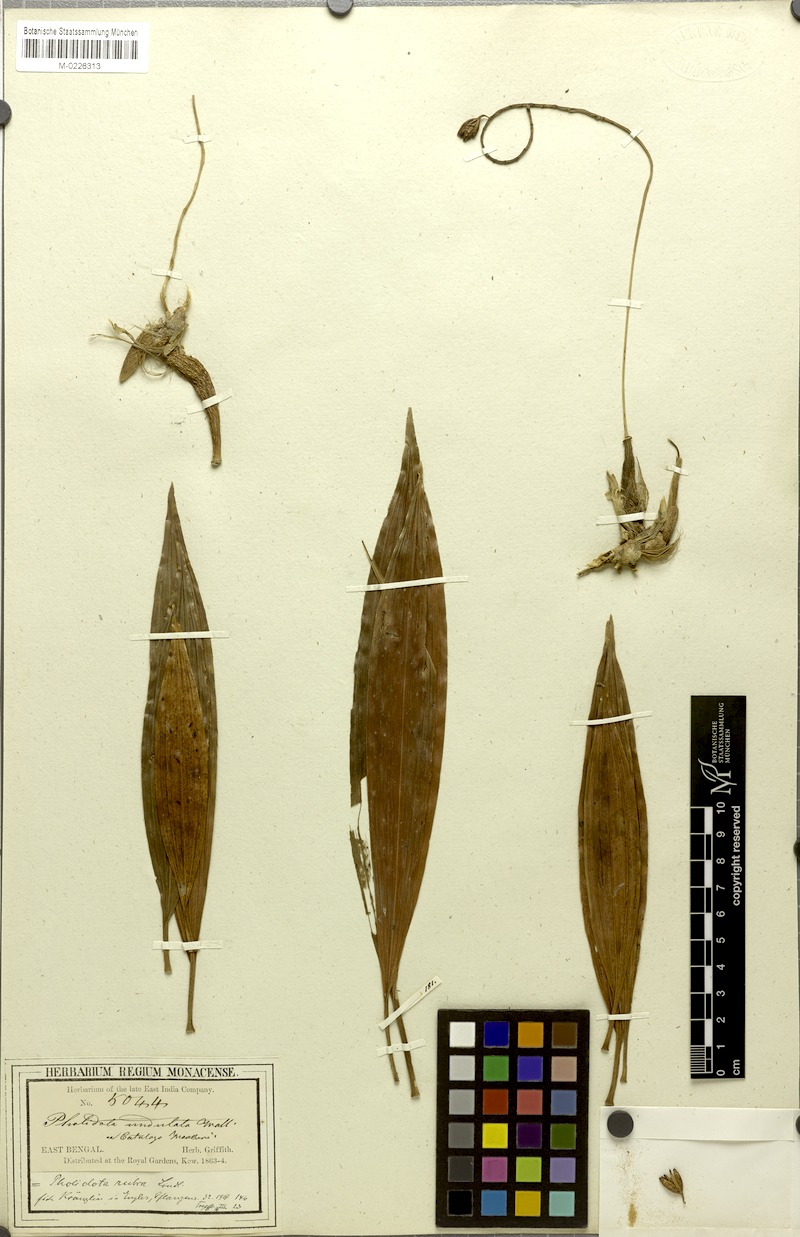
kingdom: Plantae
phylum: Tracheophyta
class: Liliopsida
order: Asparagales
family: Orchidaceae
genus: Coelogyne
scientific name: Coelogyne rubra
